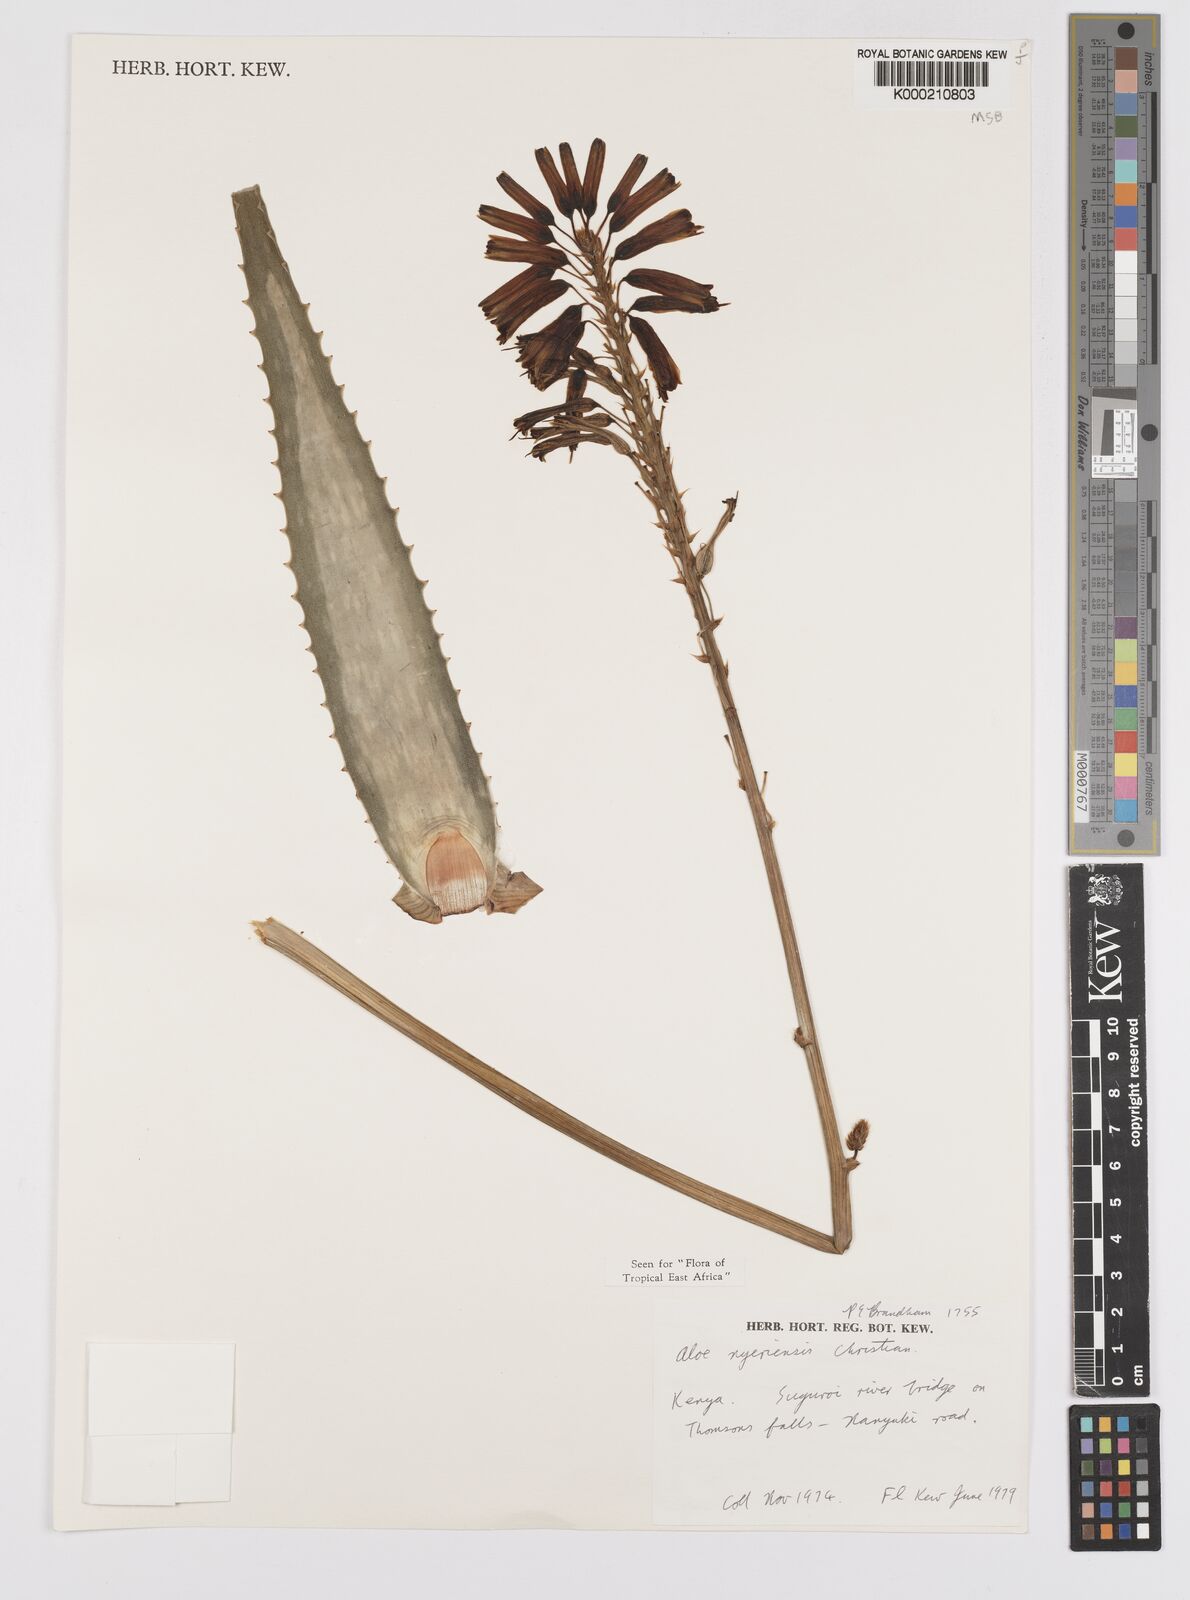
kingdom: Plantae
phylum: Tracheophyta
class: Liliopsida
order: Asparagales
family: Asphodelaceae
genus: Aloe
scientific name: Aloe nyeriensis
